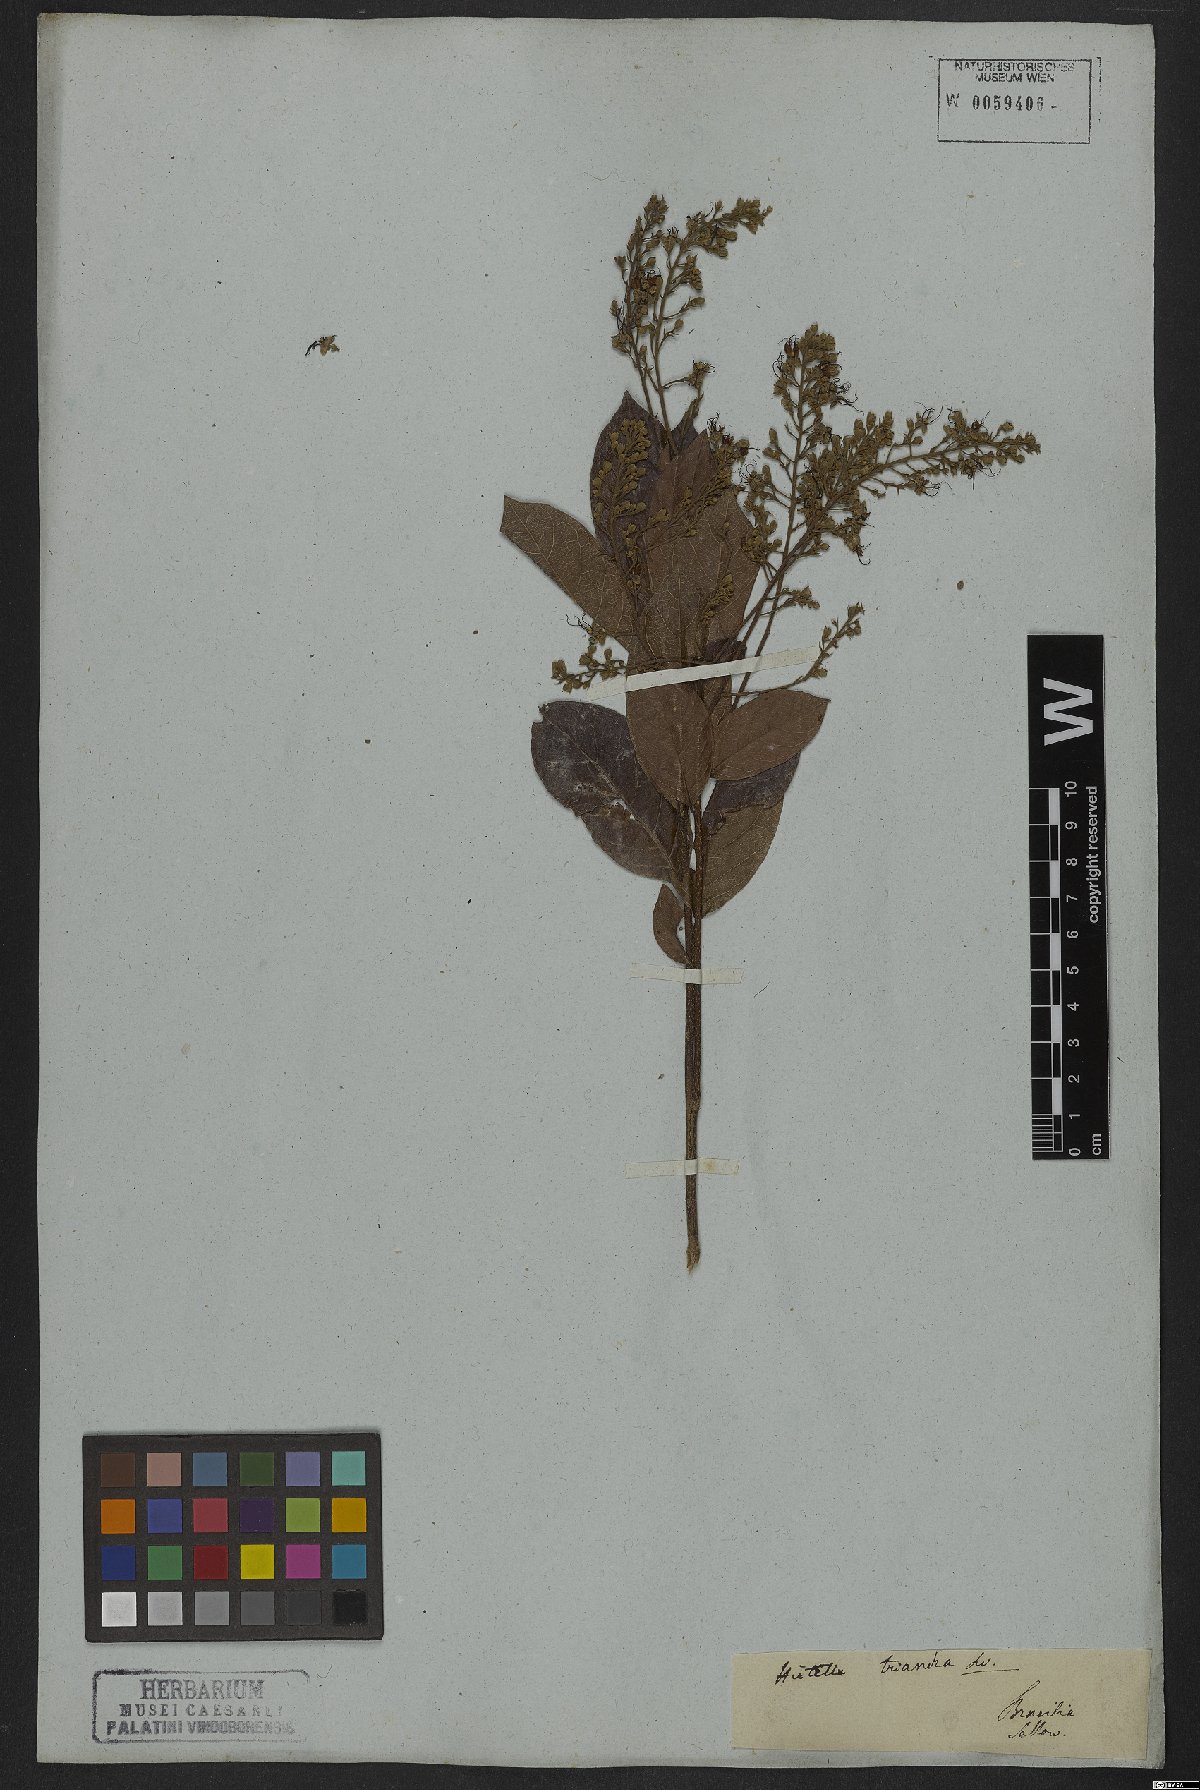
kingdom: Plantae
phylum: Tracheophyta
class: Magnoliopsida
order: Malpighiales
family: Chrysobalanaceae
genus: Hirtella
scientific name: Hirtella triandra
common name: Hairy plum
